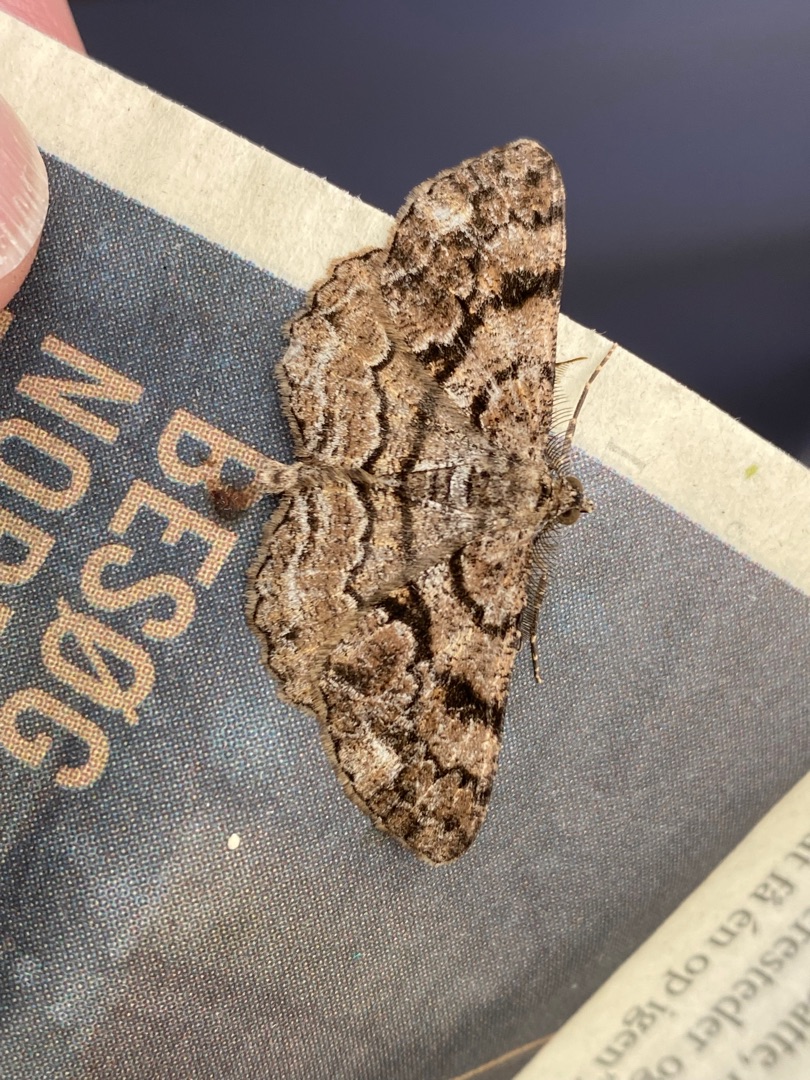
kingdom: Animalia
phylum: Arthropoda
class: Insecta
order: Lepidoptera
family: Geometridae
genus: Peribatodes
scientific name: Peribatodes secundaria
